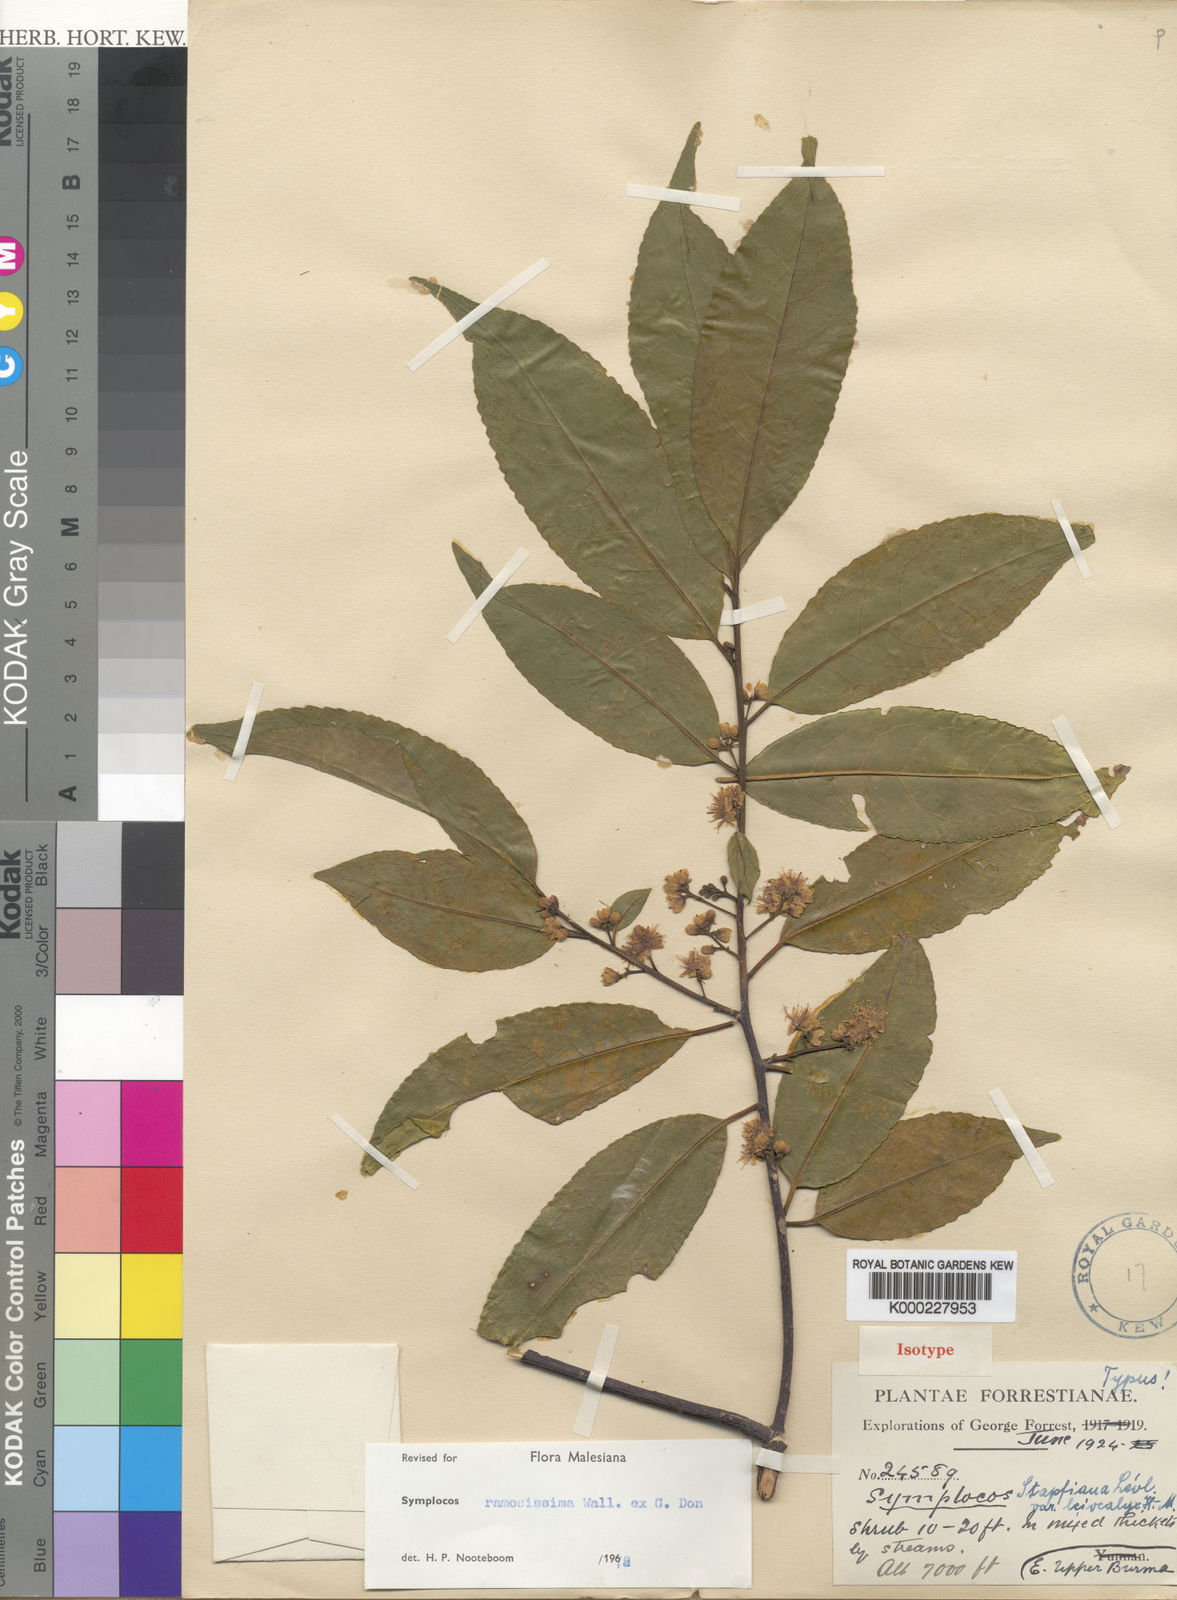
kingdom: Plantae
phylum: Tracheophyta
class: Magnoliopsida
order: Ericales
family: Symplocaceae
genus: Symplocos
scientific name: Symplocos ramosissima
